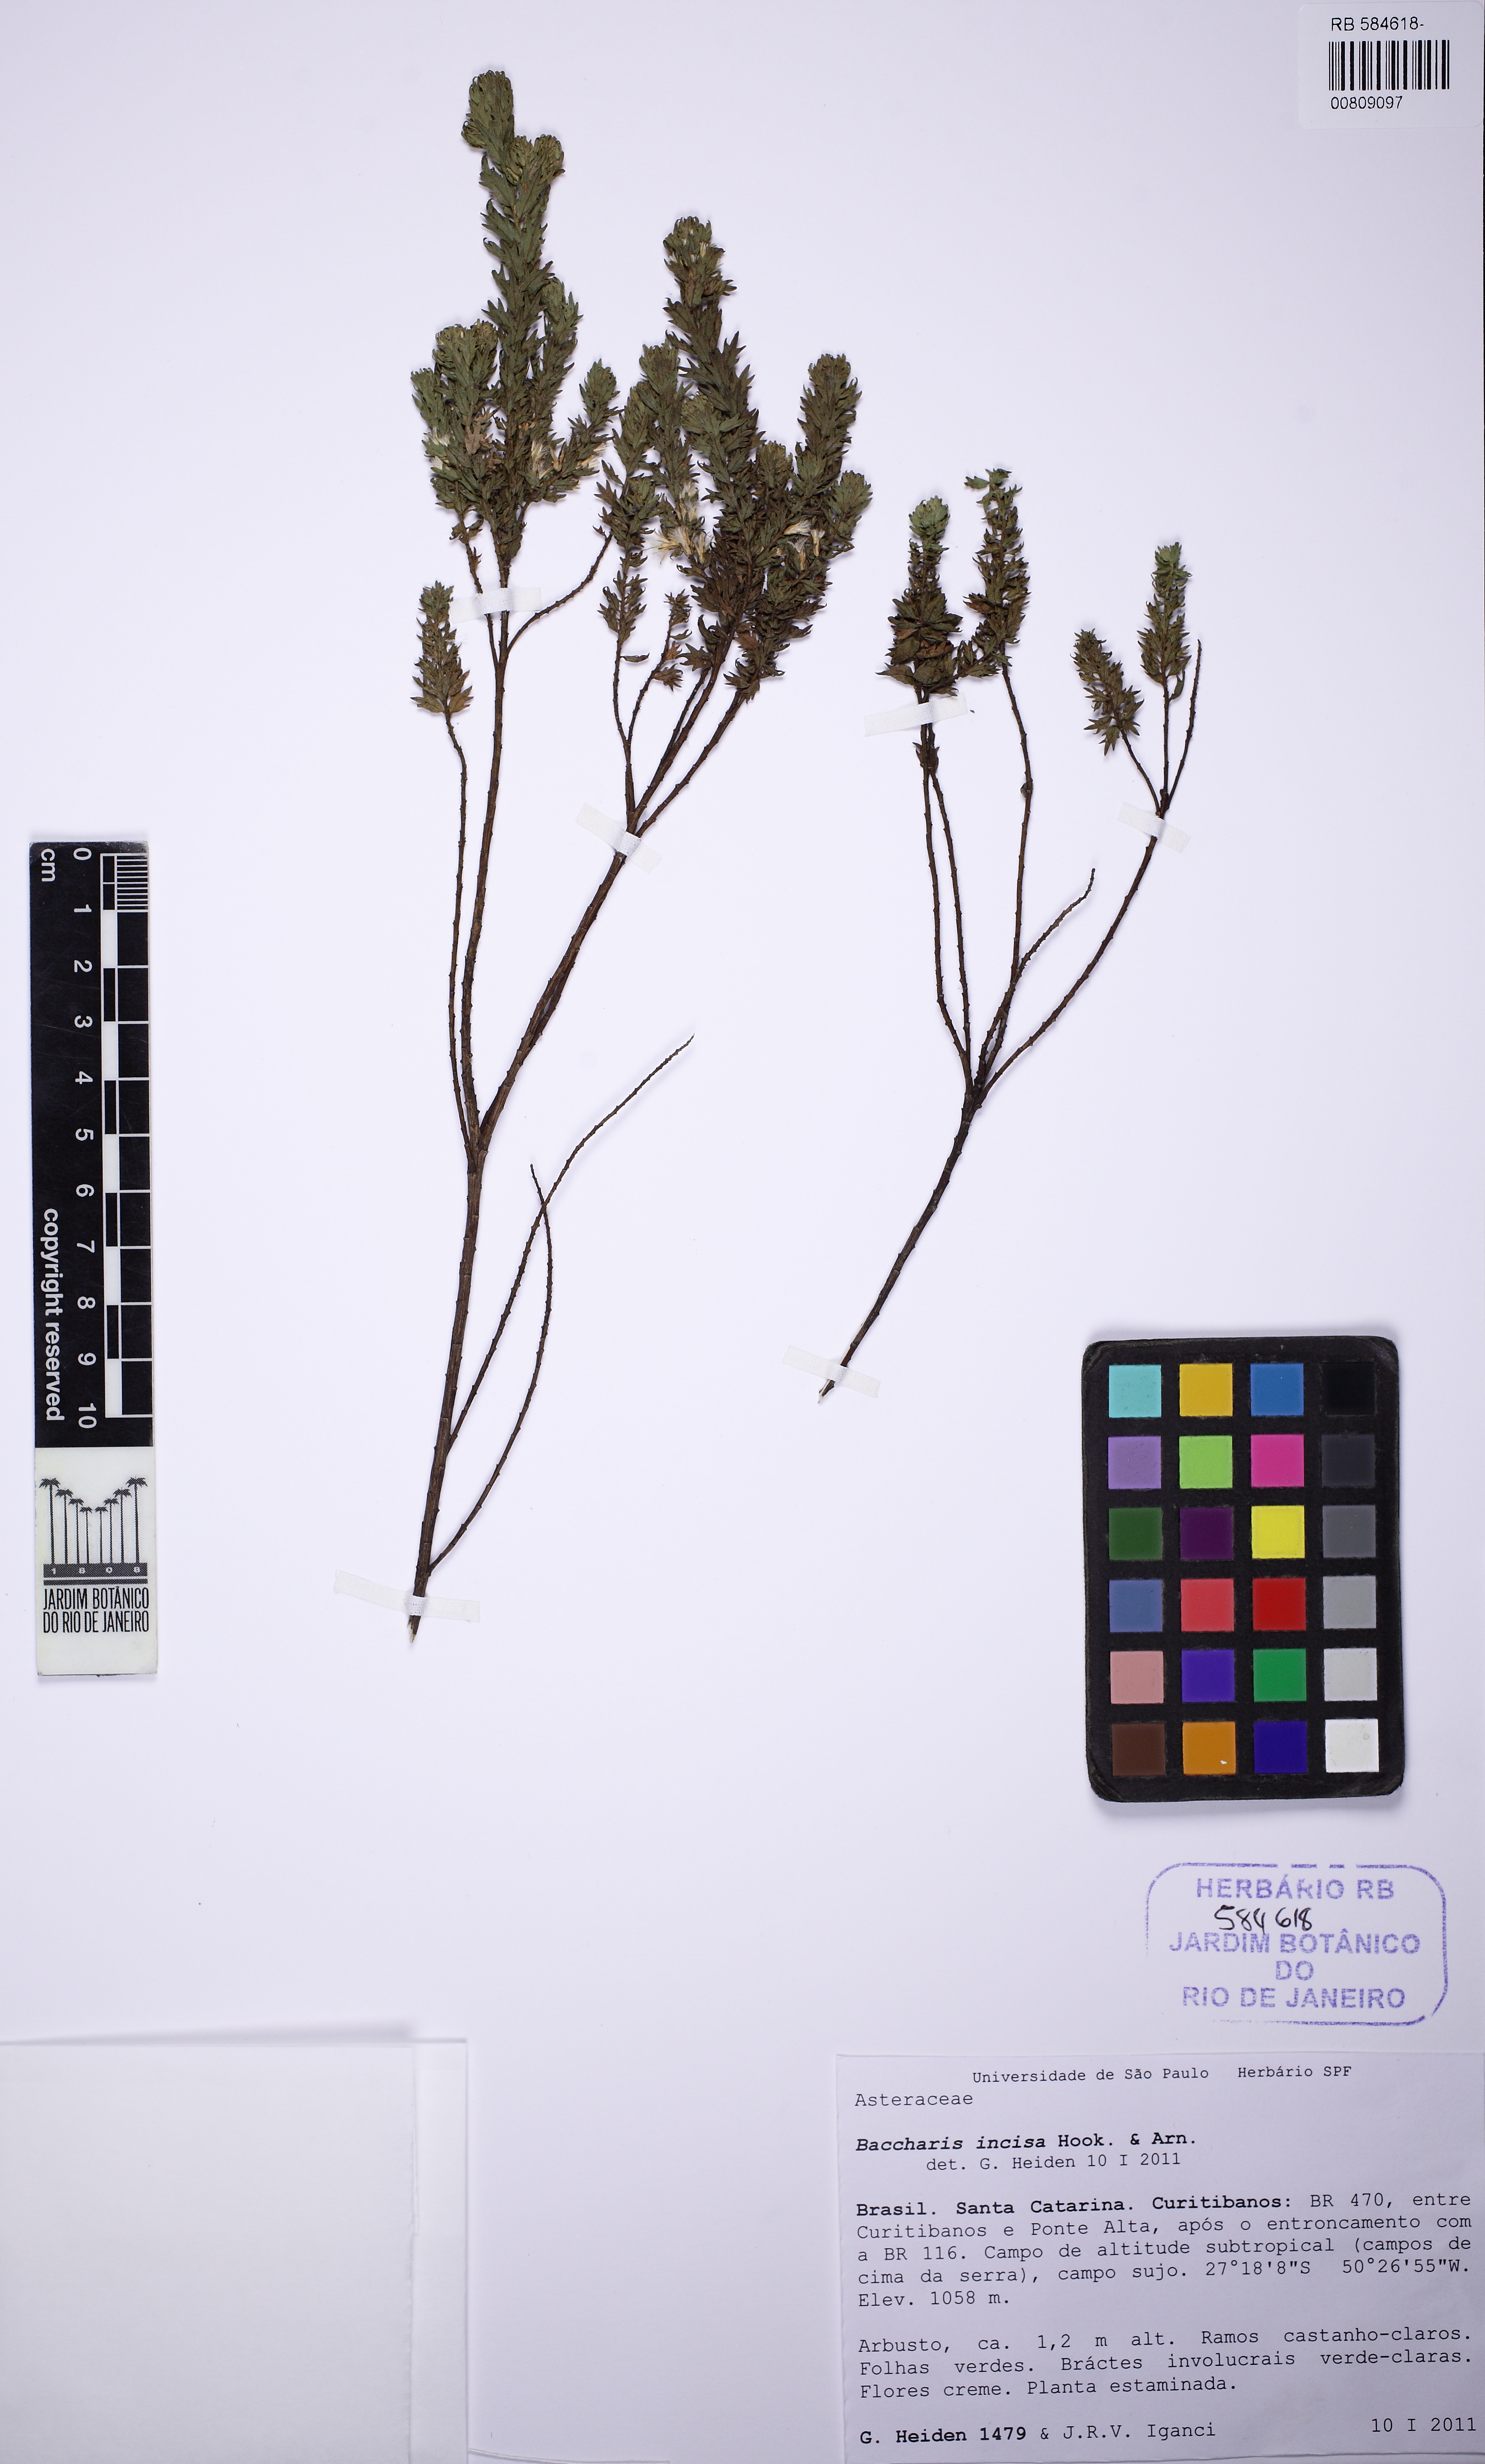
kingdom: Plantae
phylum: Tracheophyta
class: Magnoliopsida
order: Asterales
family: Asteraceae
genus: Baccharis
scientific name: Baccharis incisa
